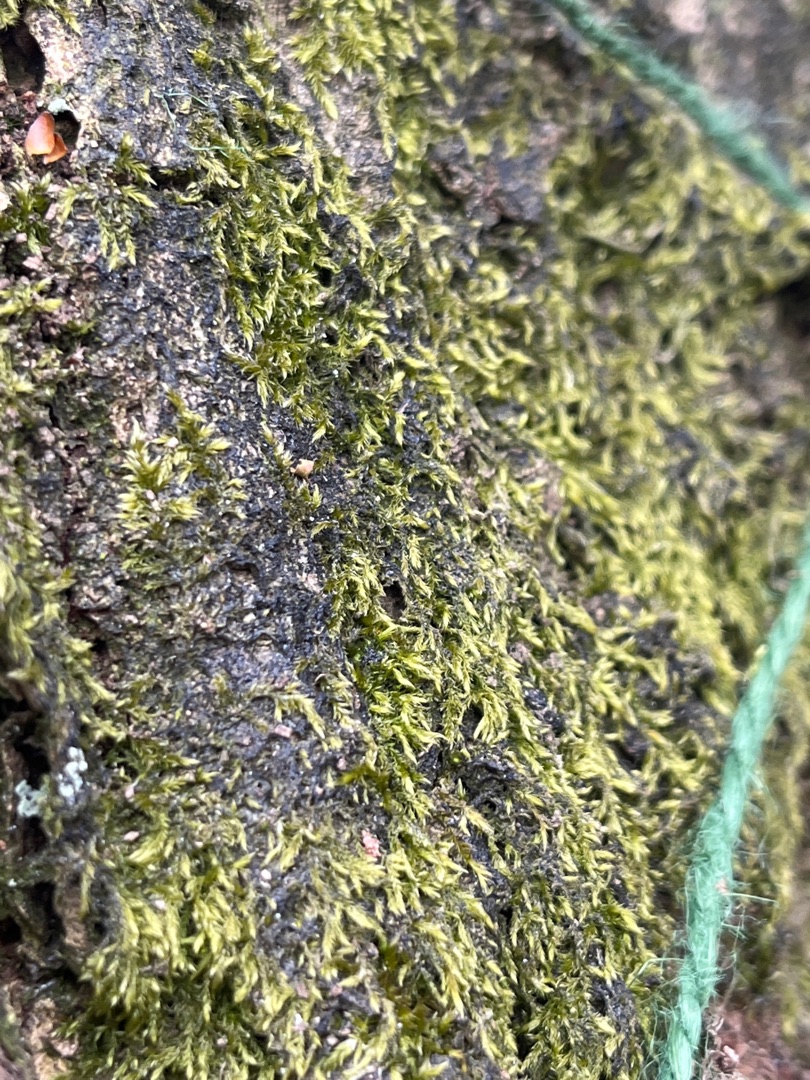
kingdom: Plantae
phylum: Bryophyta
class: Bryopsida
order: Hypnales
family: Hypnaceae
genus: Hypnum
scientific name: Hypnum
